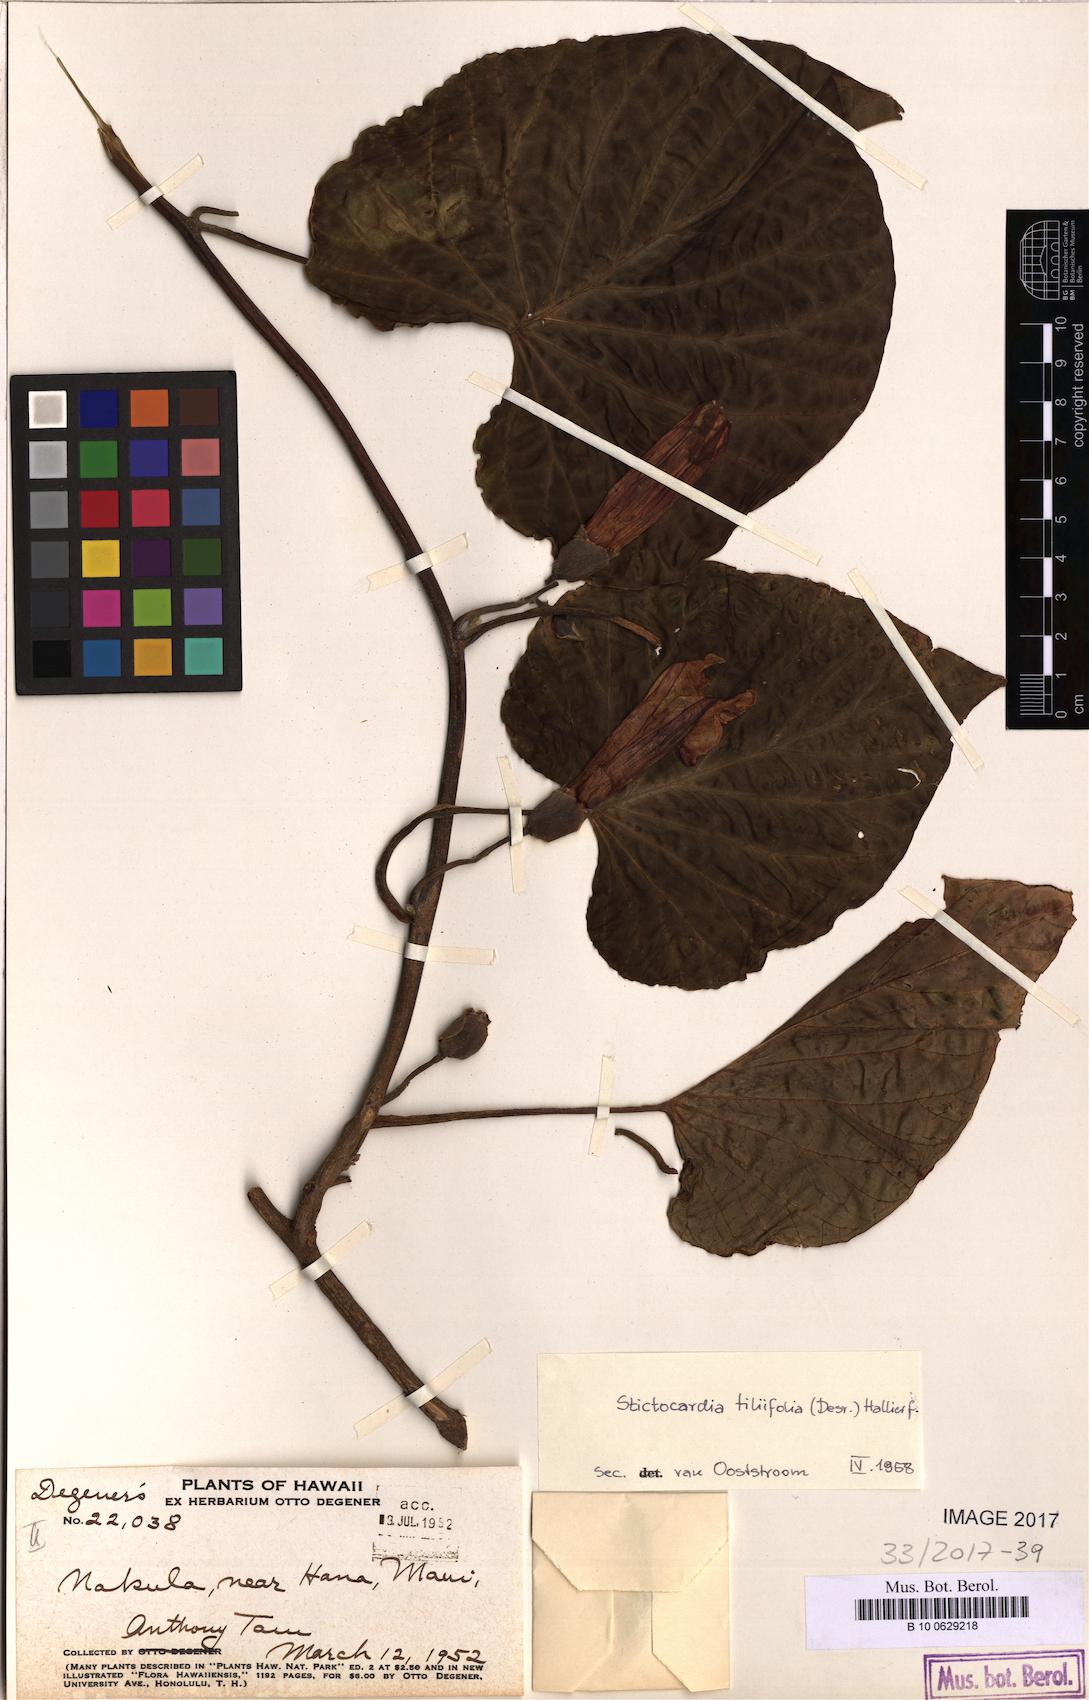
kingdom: Plantae
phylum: Tracheophyta
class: Magnoliopsida
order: Solanales
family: Convolvulaceae
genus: Stictocardia
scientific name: Stictocardia tiliifolia
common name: Spottedheart
